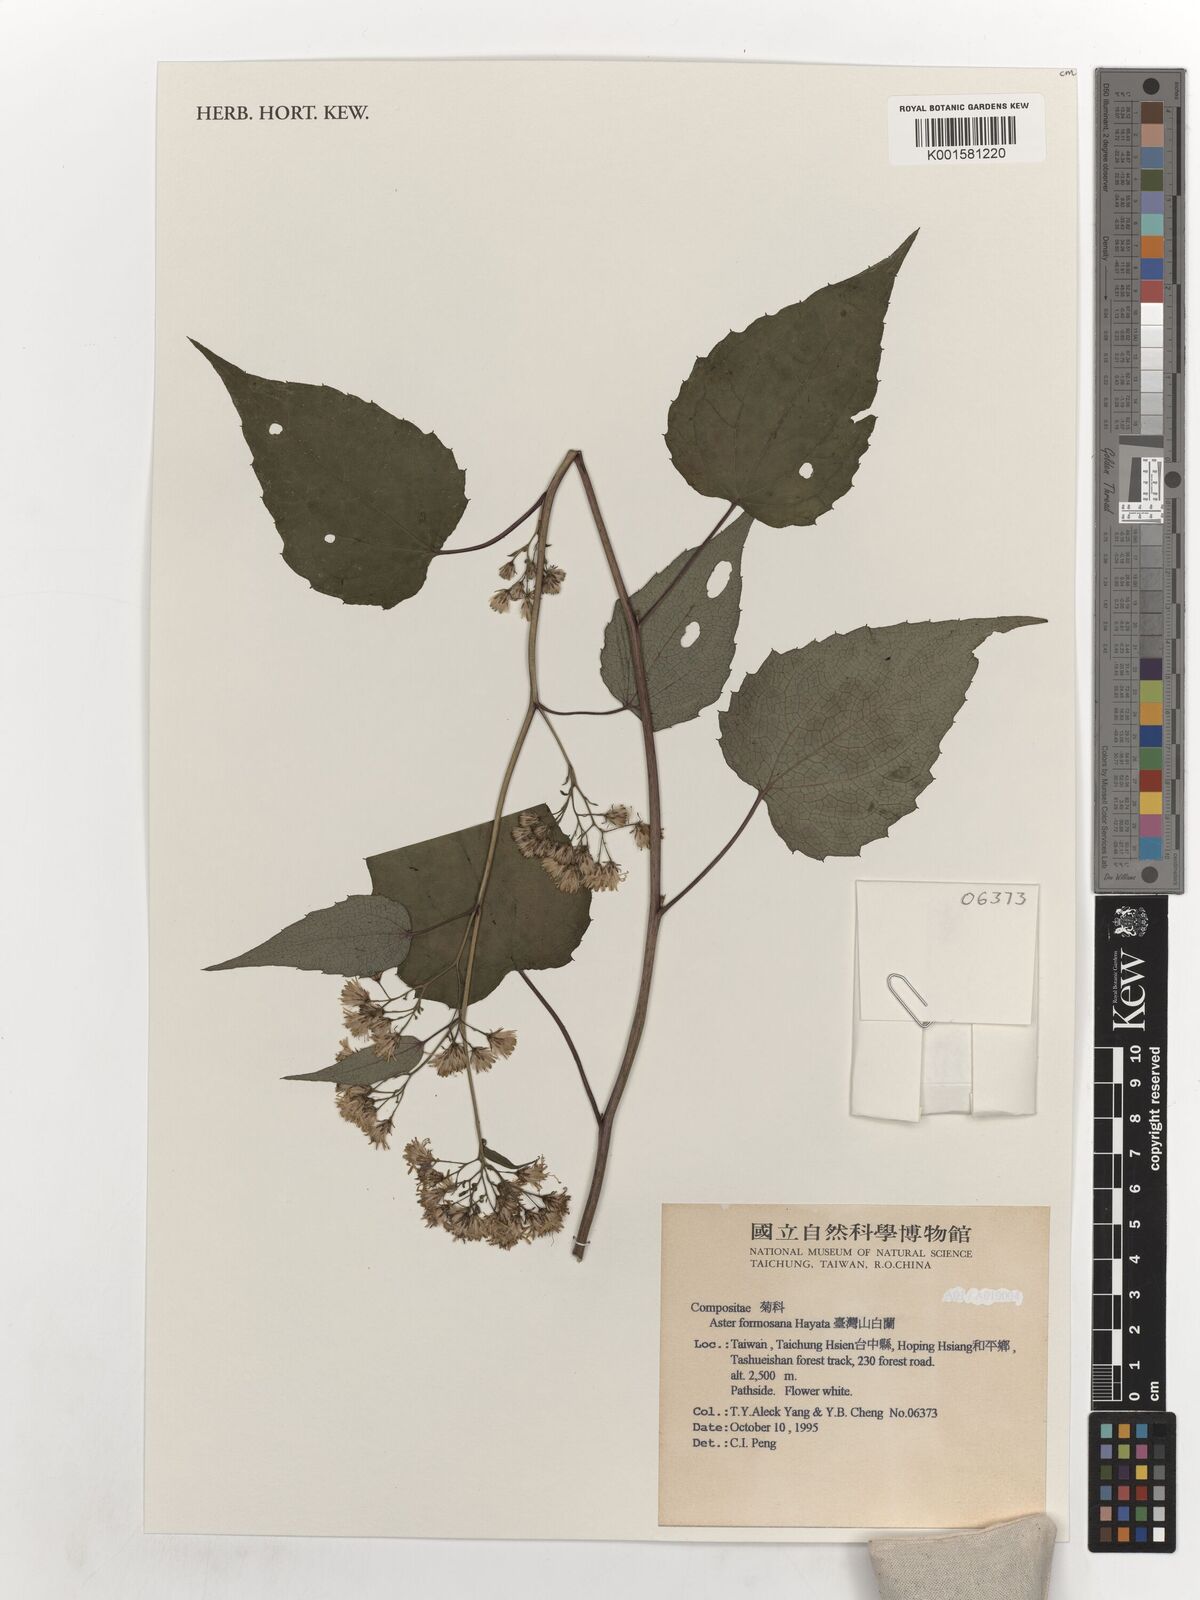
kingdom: Plantae
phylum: Tracheophyta
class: Magnoliopsida
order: Asterales
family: Asteraceae
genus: Aster
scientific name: Aster formosanus
